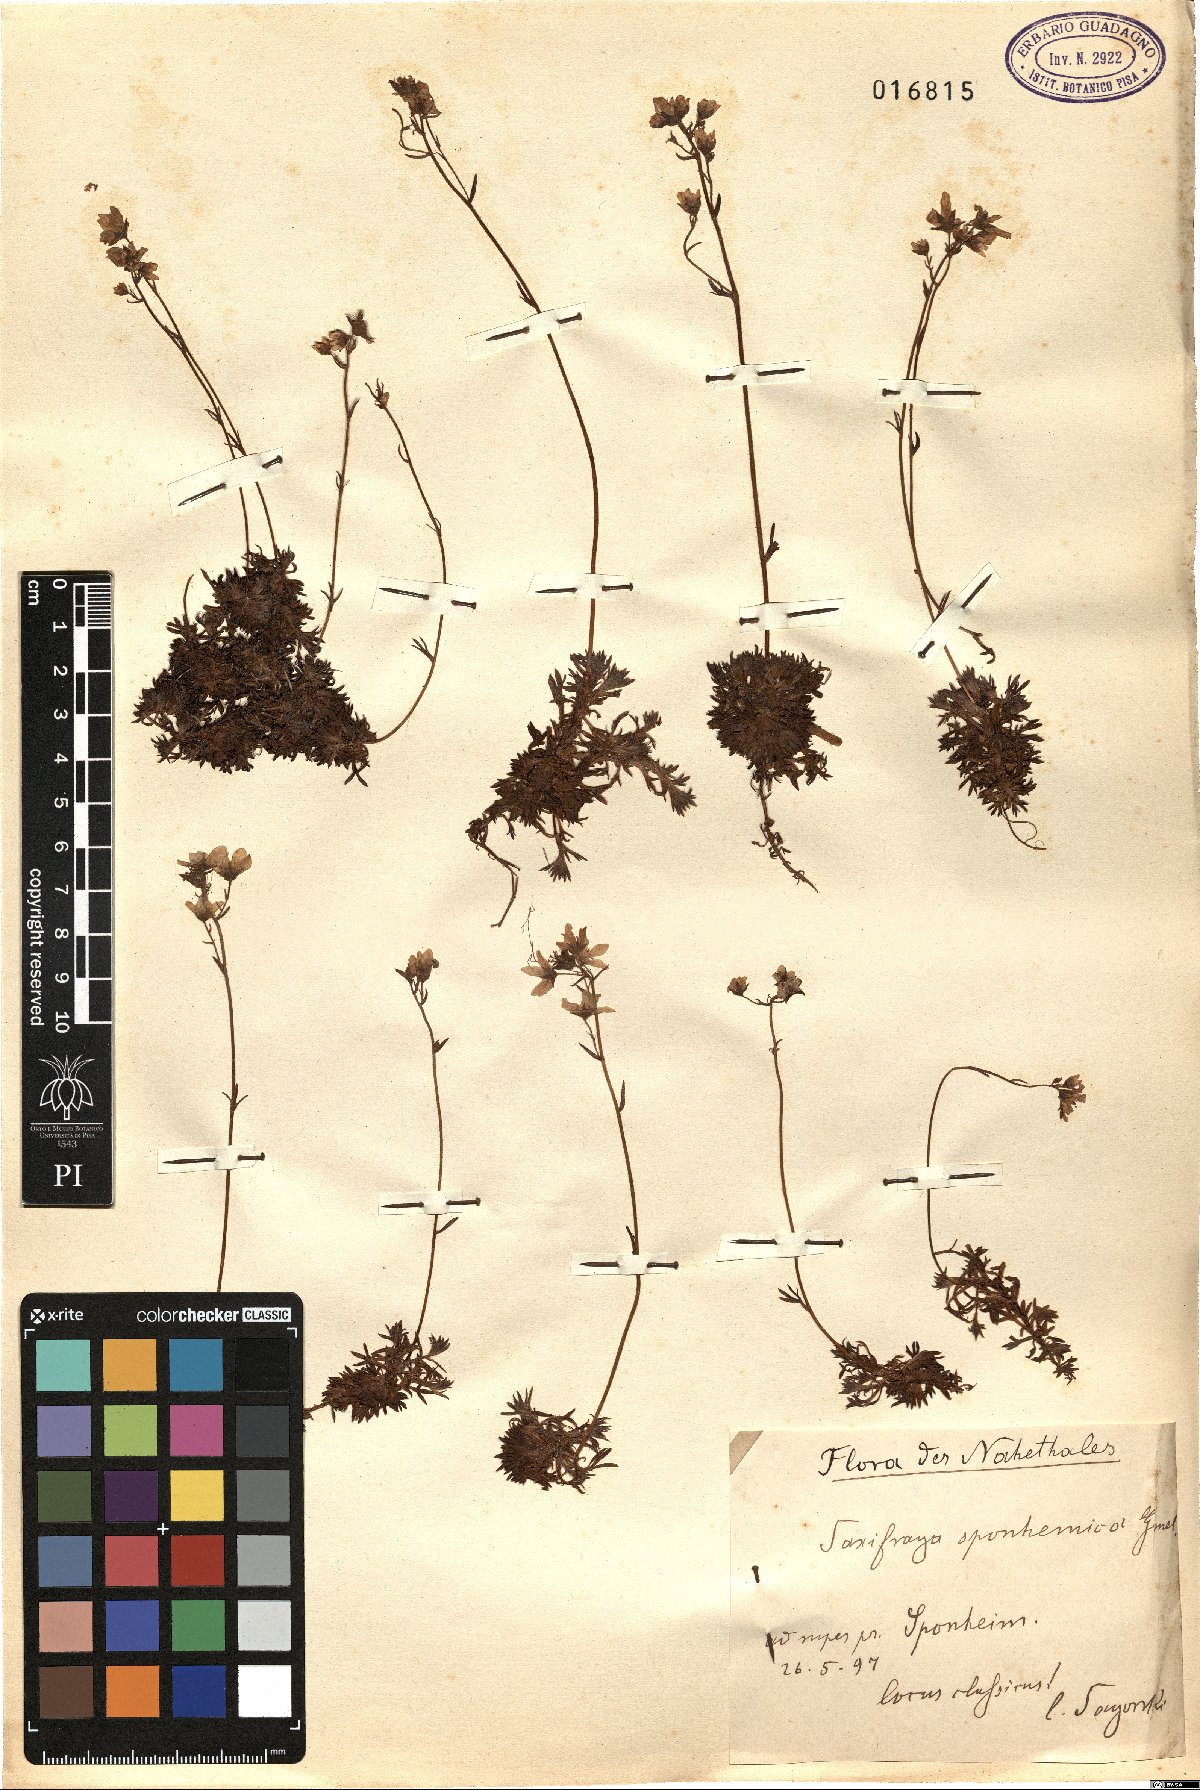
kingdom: Plantae
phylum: Tracheophyta
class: Magnoliopsida
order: Saxifragales
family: Saxifragaceae
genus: Saxifraga
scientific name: Saxifraga rosacea
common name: Irish saxifrage
